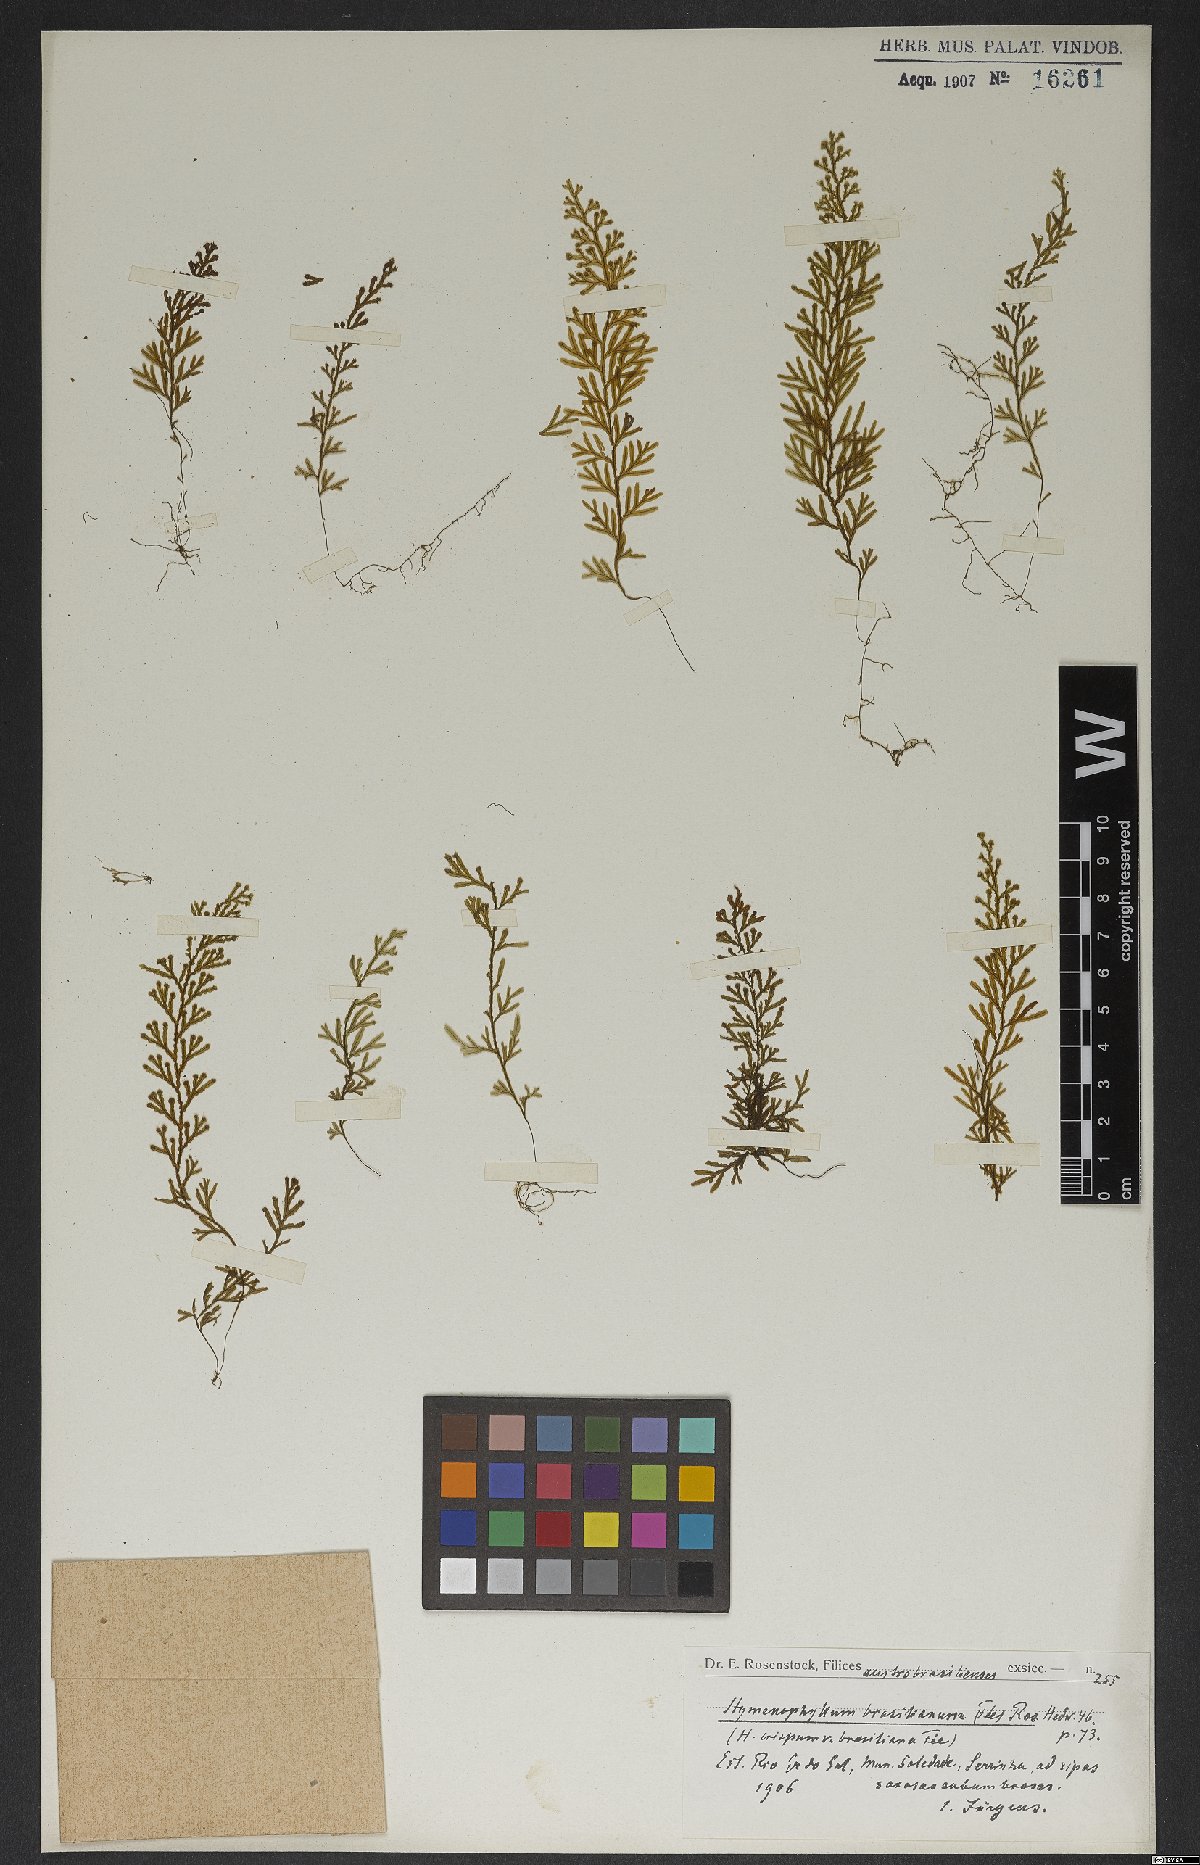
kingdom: Plantae
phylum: Tracheophyta
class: Polypodiopsida
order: Hymenophyllales
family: Hymenophyllaceae
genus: Hymenophyllum
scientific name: Hymenophyllum crispum
